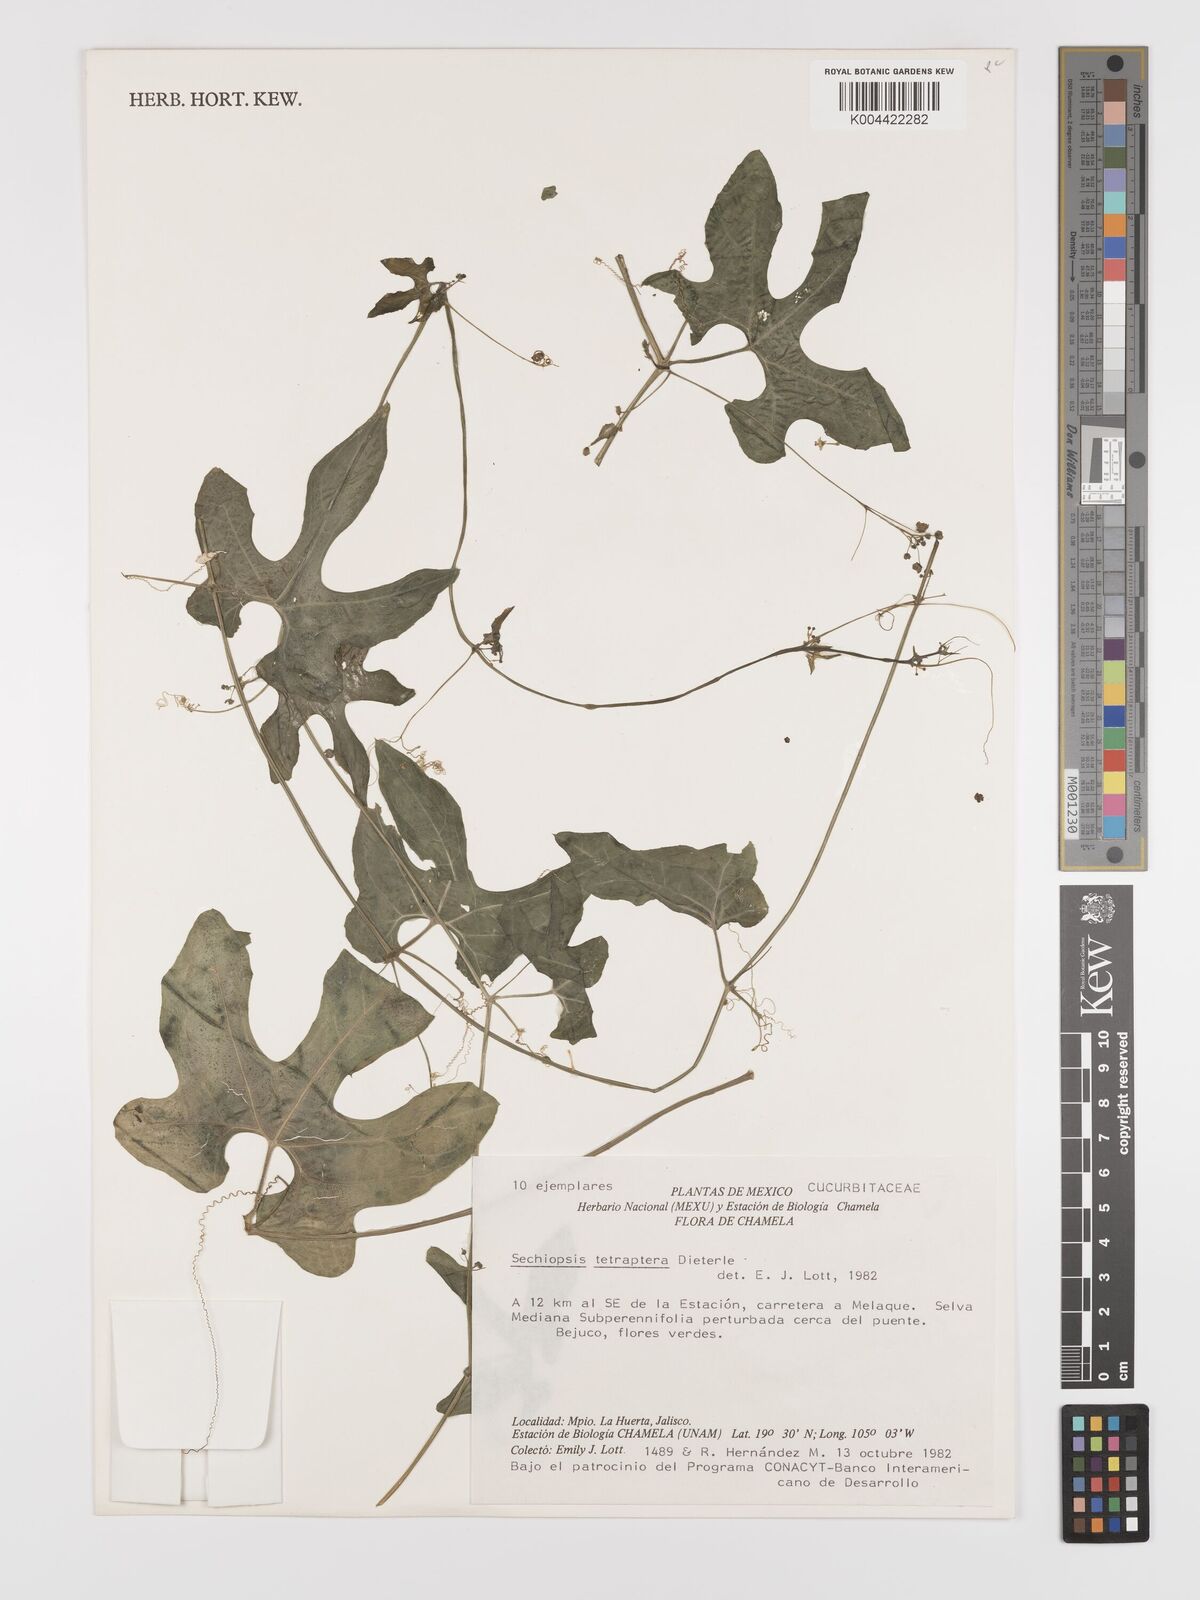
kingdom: Plantae
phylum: Tracheophyta
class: Magnoliopsida
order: Cucurbitales
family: Cucurbitaceae
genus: Sechiopsis
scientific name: Sechiopsis tetraptera
